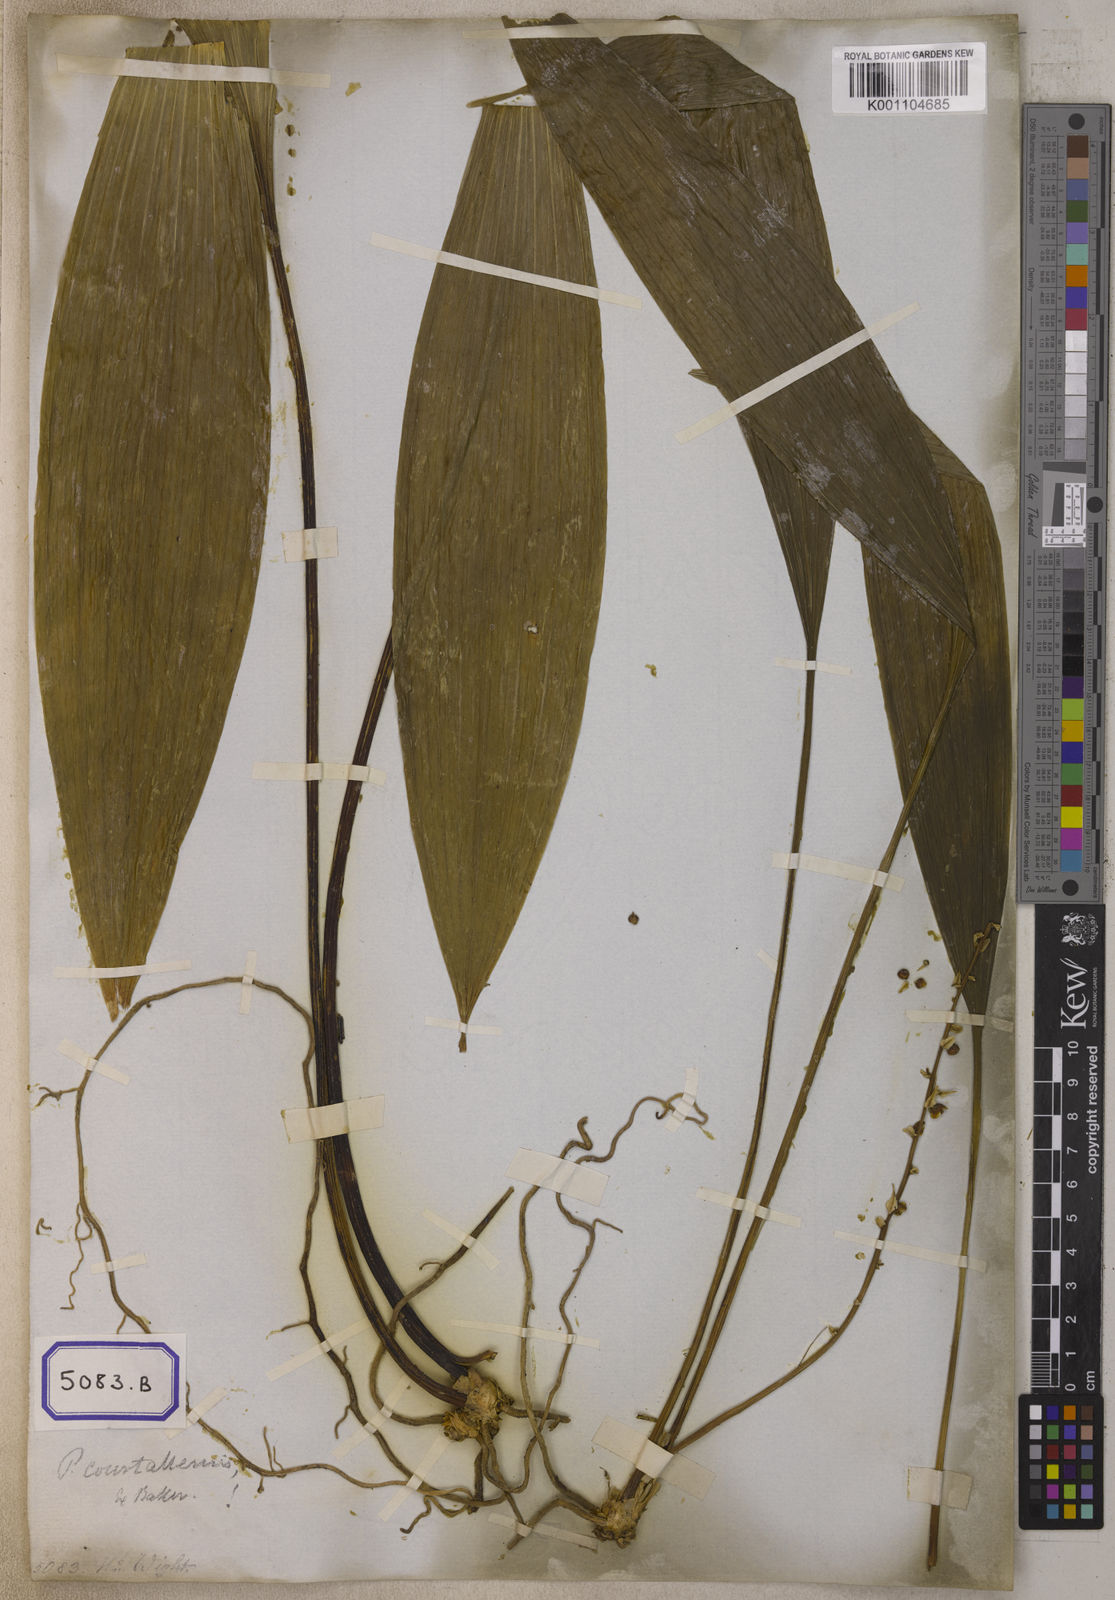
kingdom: Plantae
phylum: Tracheophyta
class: Liliopsida
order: Asparagales
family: Asparagaceae
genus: Peliosanthes
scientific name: Peliosanthes
